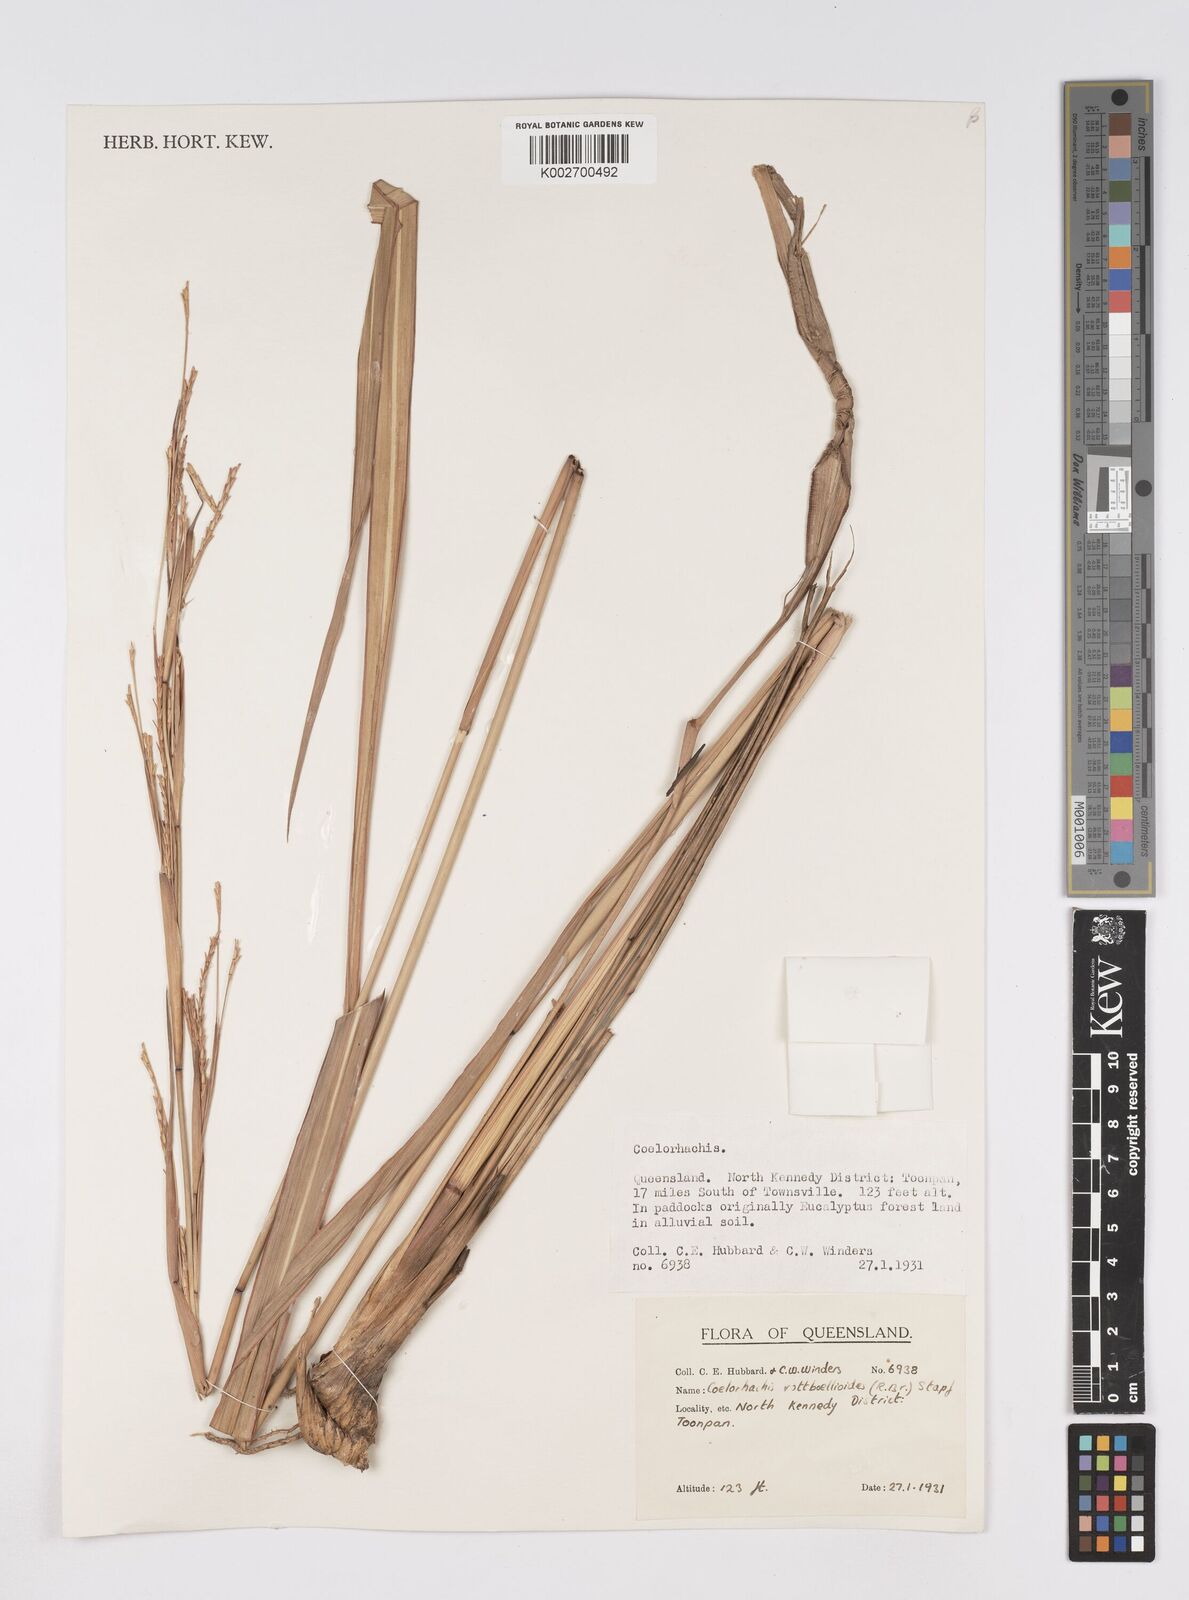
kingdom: Plantae
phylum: Tracheophyta
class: Liliopsida
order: Poales
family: Poaceae
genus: Rottboellia
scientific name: Rottboellia rottboellioides
